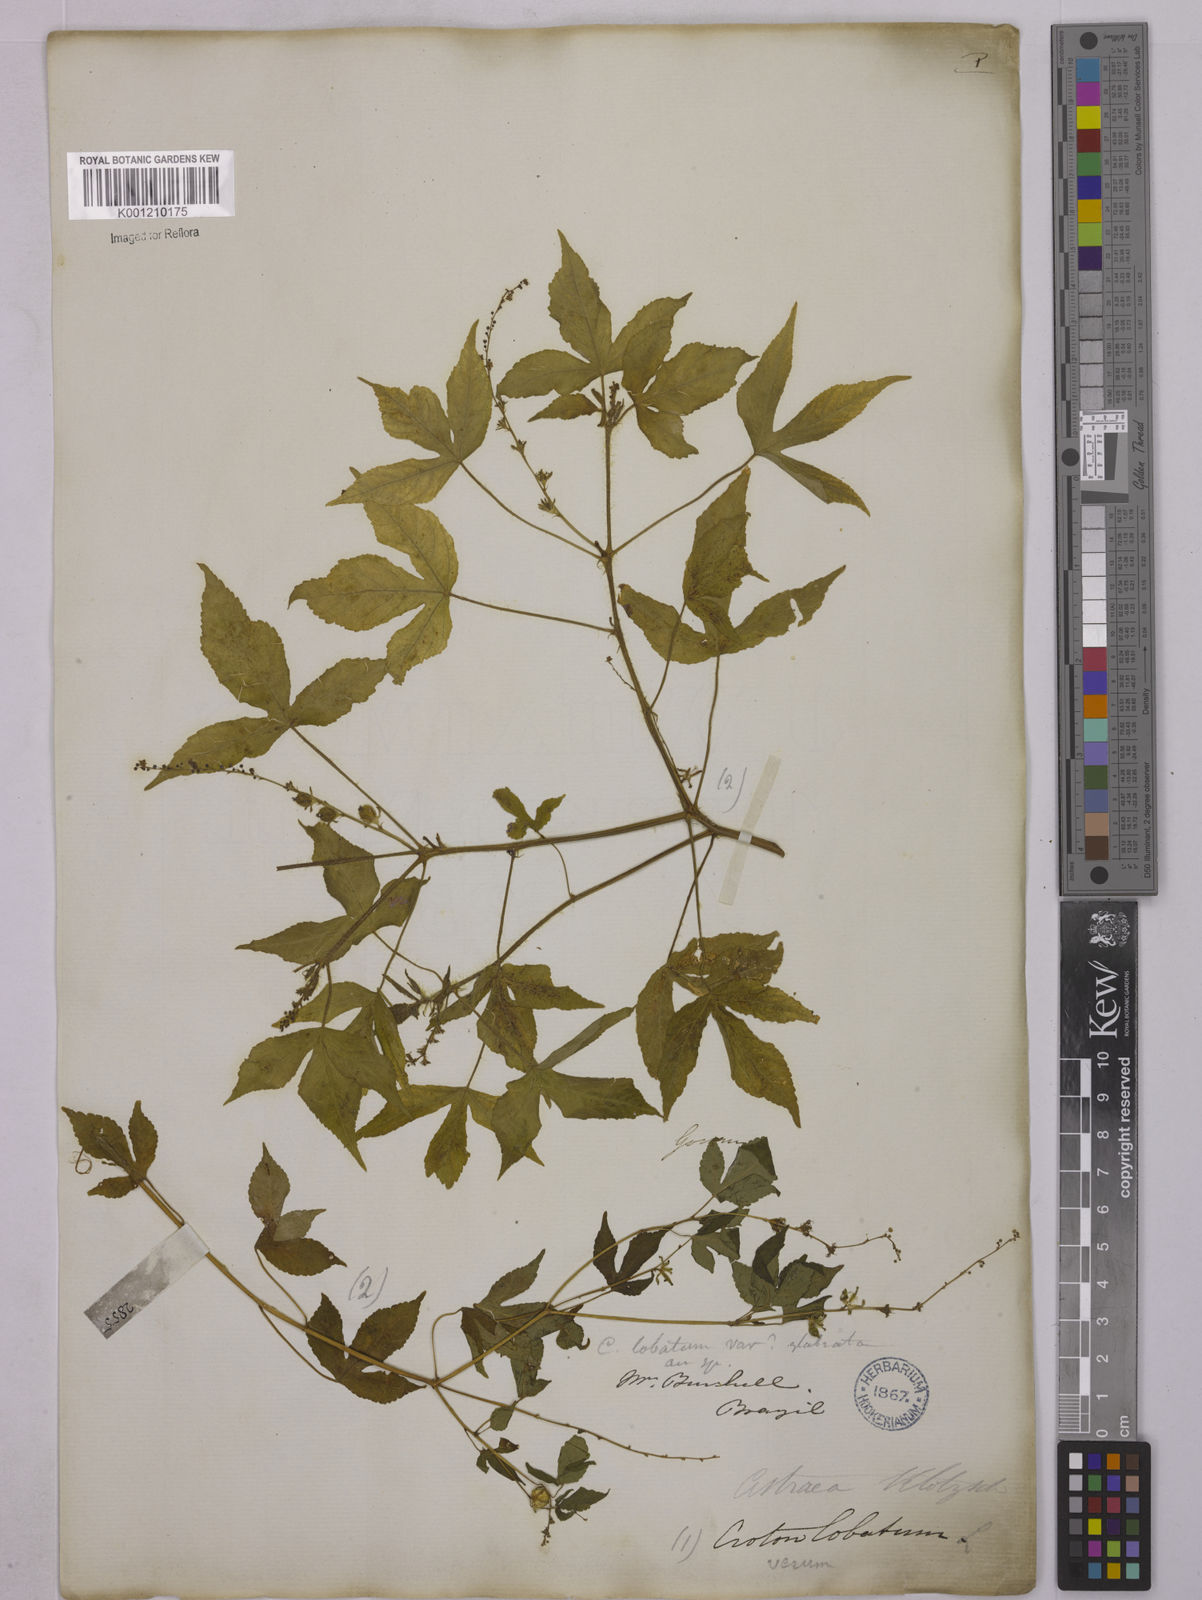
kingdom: Plantae
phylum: Tracheophyta
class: Magnoliopsida
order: Malpighiales
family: Euphorbiaceae
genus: Astraea
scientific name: Astraea lobata
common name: Lobed croton
